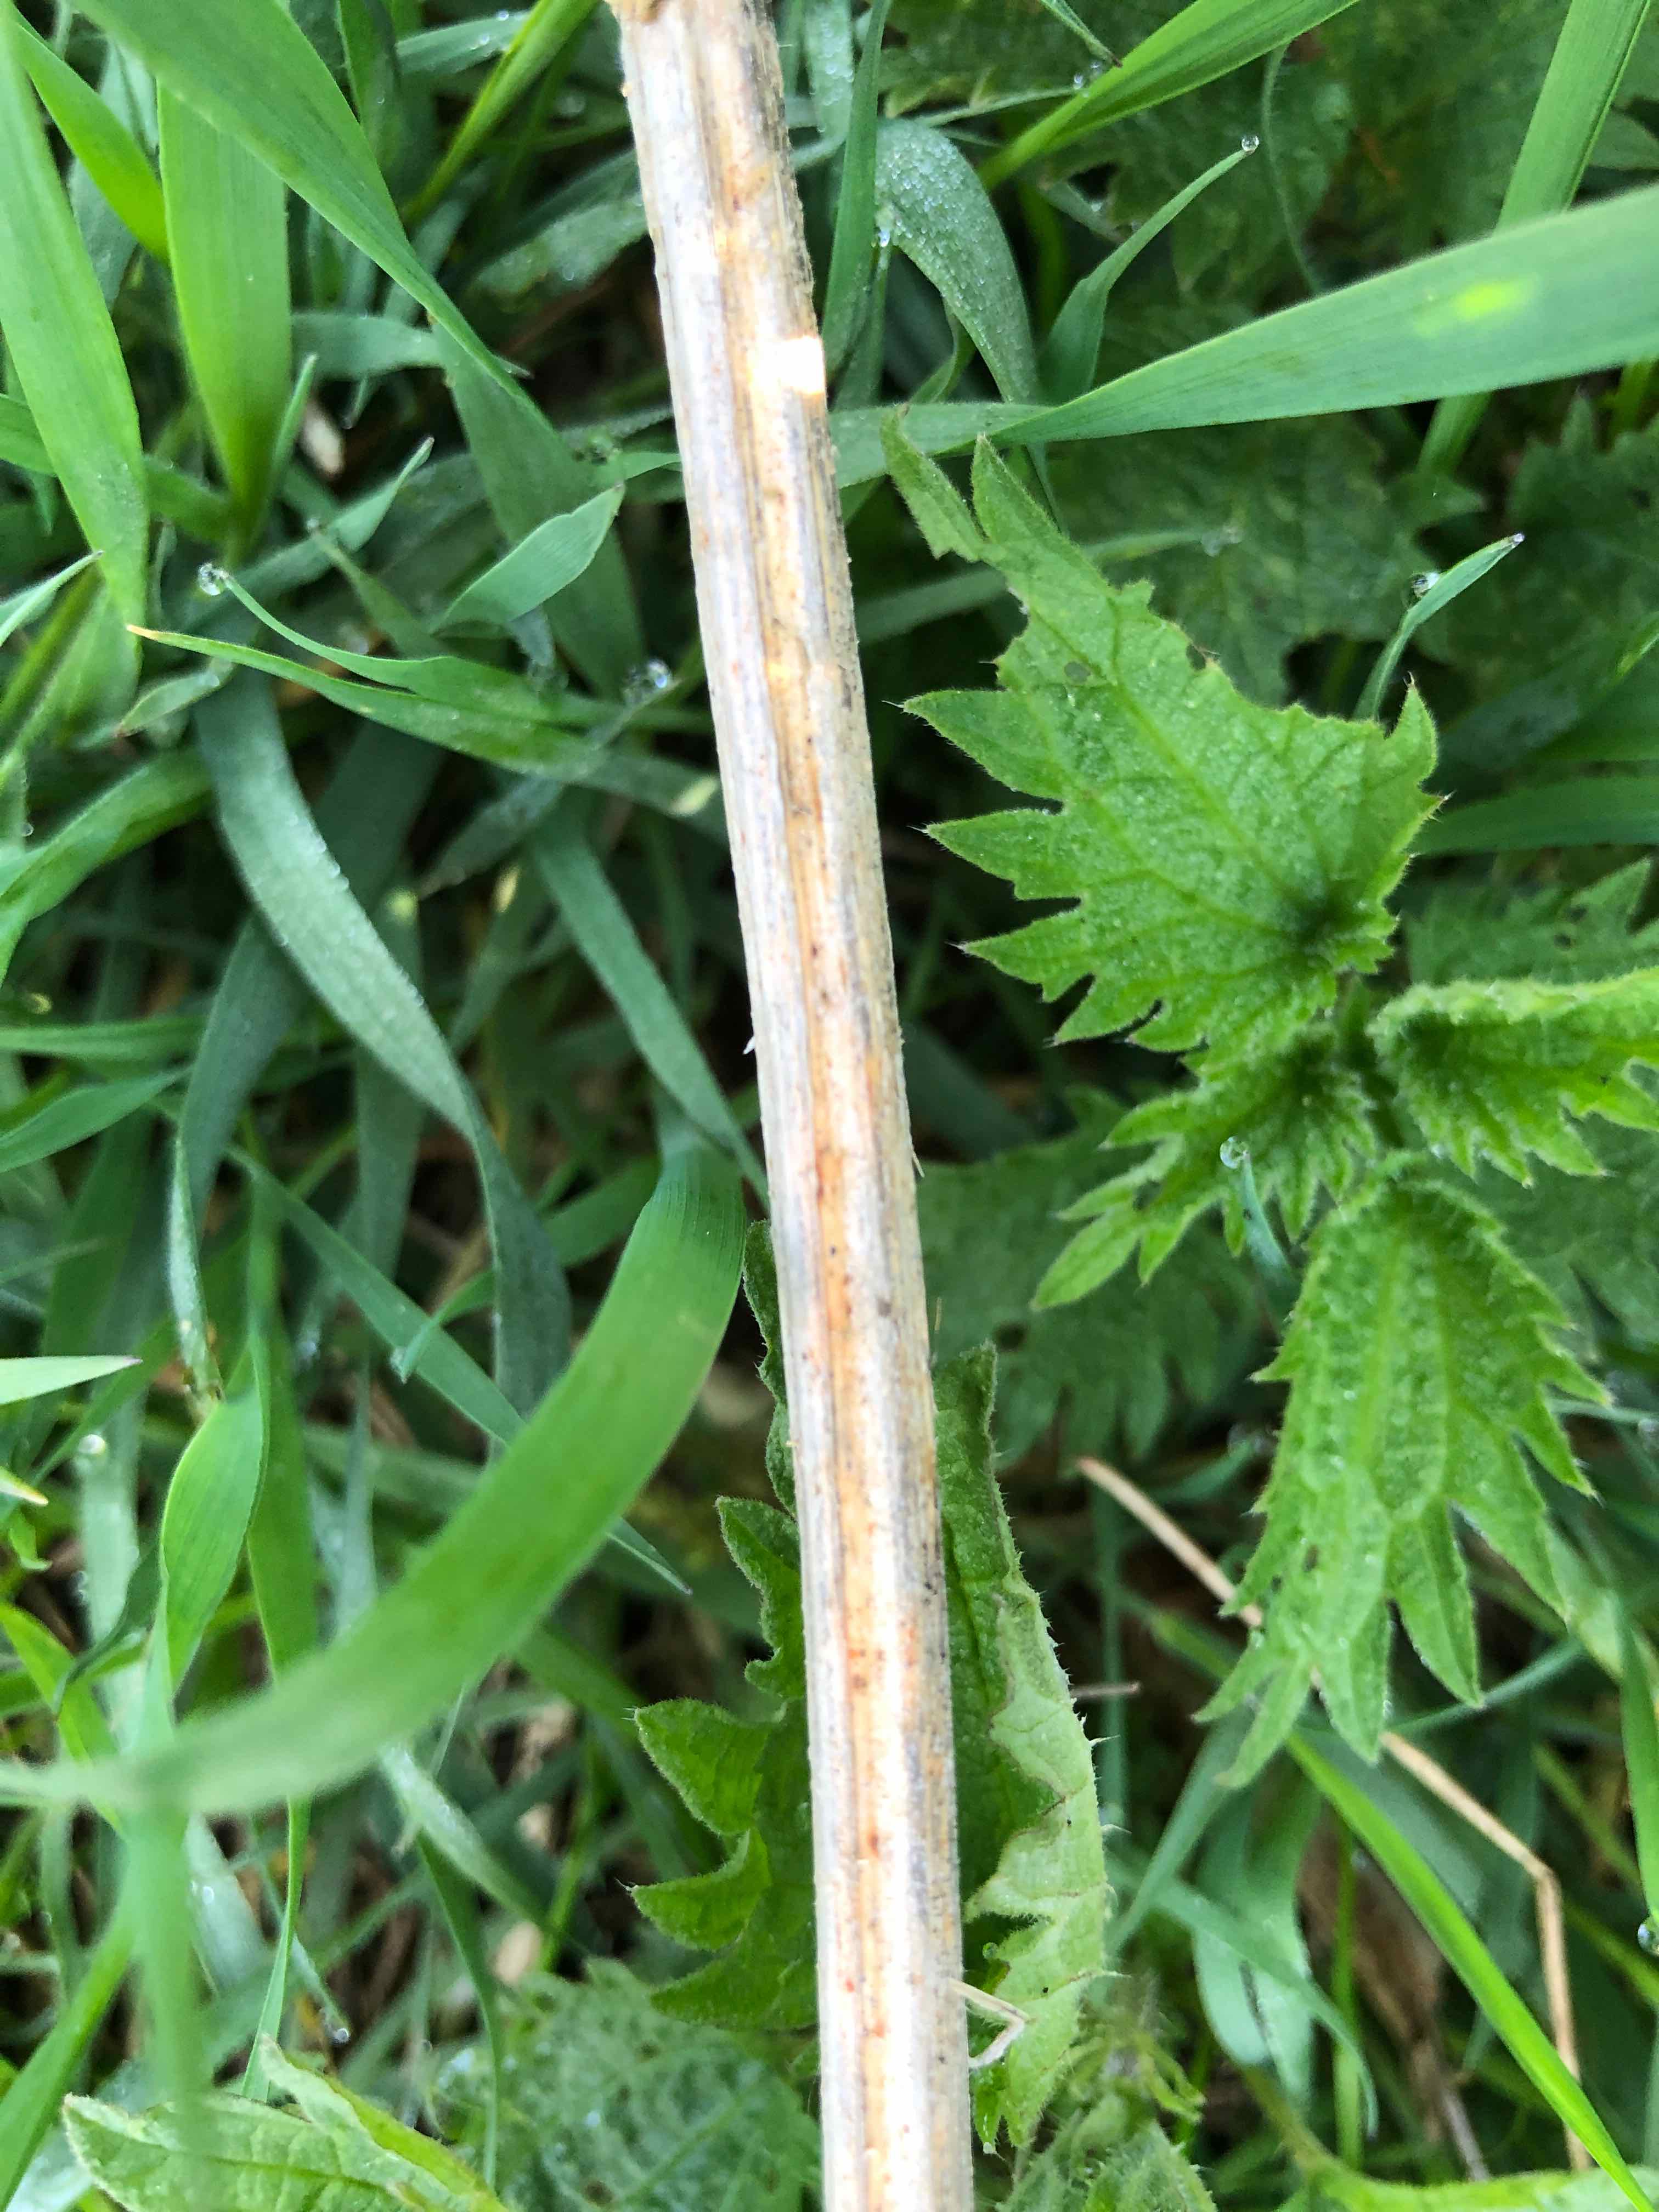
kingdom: Fungi
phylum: Ascomycota
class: Leotiomycetes
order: Helotiales
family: Calloriaceae
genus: Calloria
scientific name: Calloria urticae
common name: nælde-orangeskive
